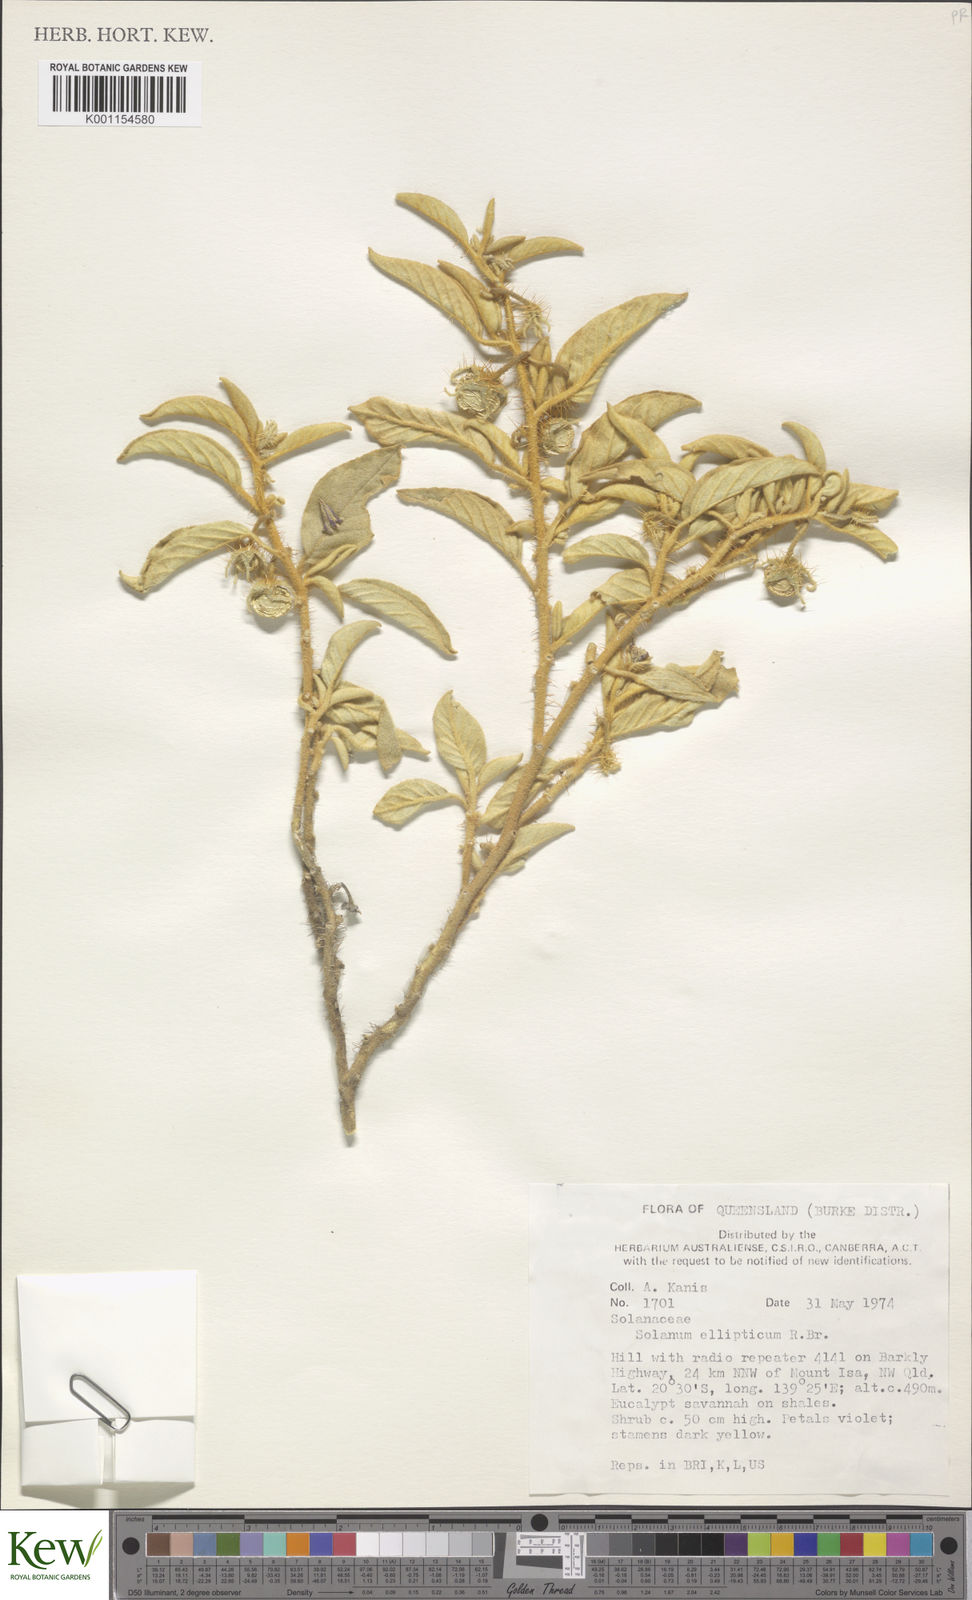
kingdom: Plantae
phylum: Tracheophyta
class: Magnoliopsida
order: Solanales
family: Solanaceae
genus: Solanum
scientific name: Solanum ellipticum
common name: Potato-bush
